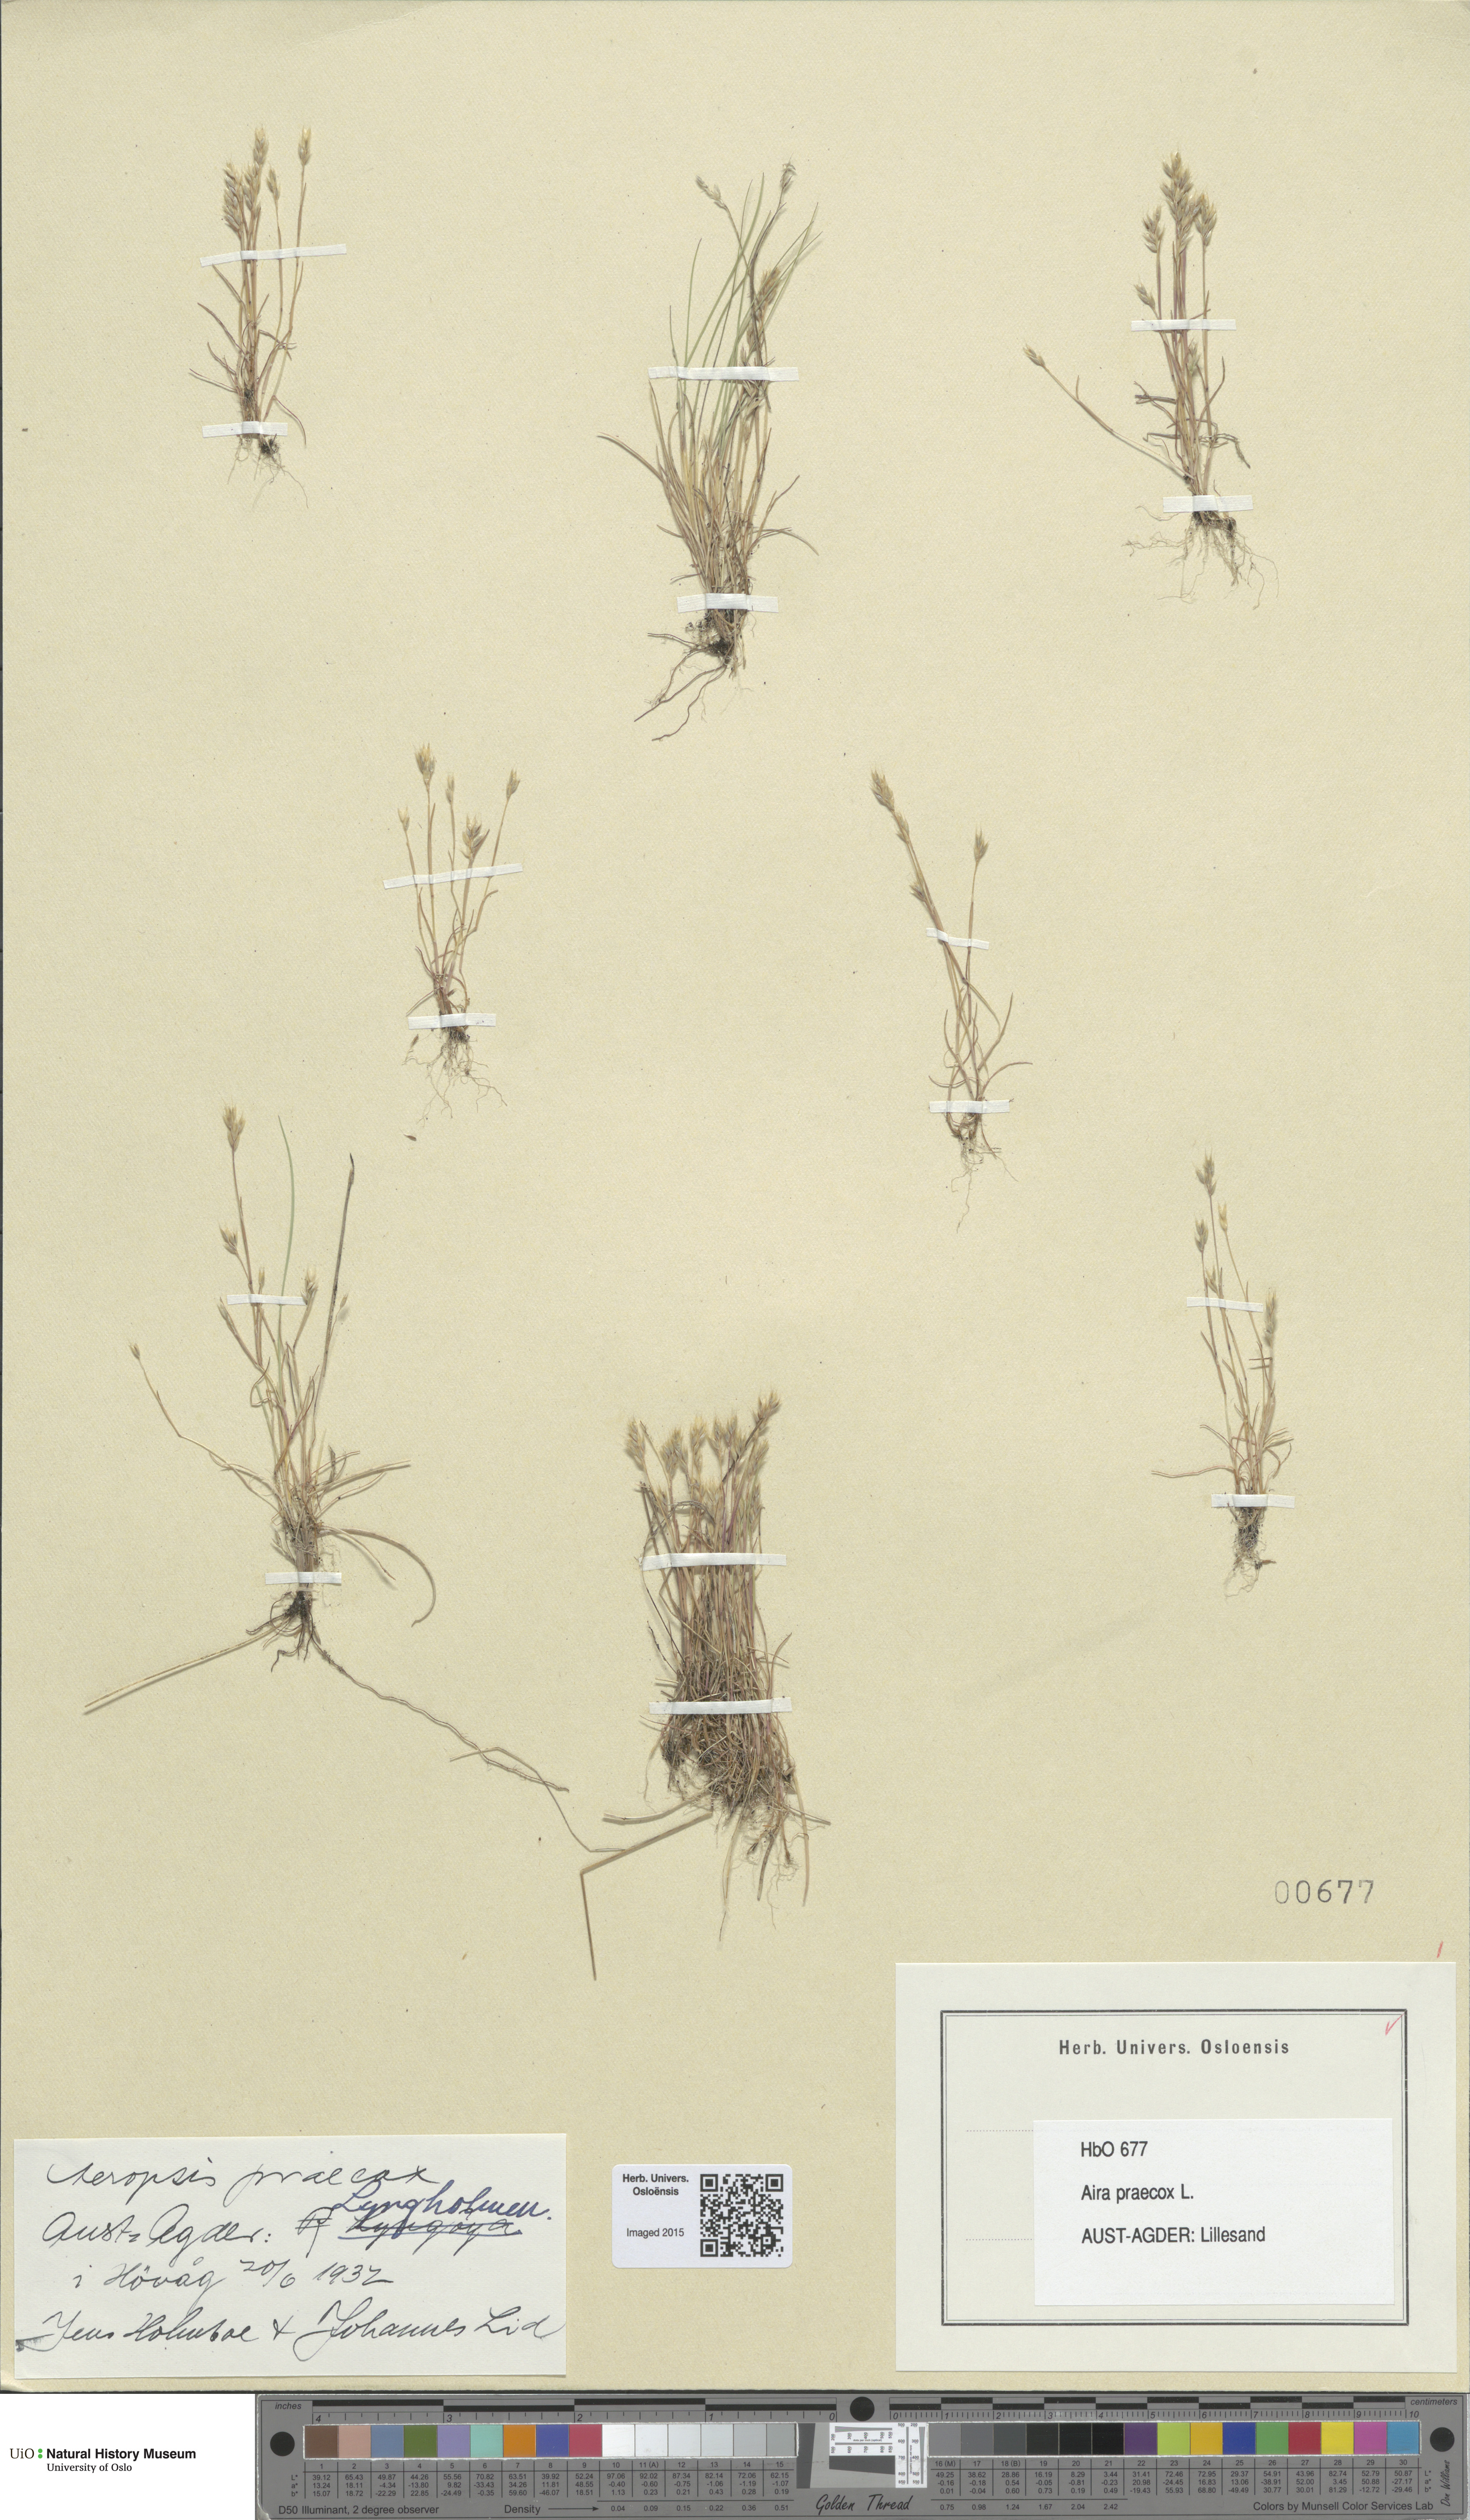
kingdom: Plantae
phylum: Tracheophyta
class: Liliopsida
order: Poales
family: Poaceae
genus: Aira
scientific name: Aira praecox
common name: Early hair-grass
